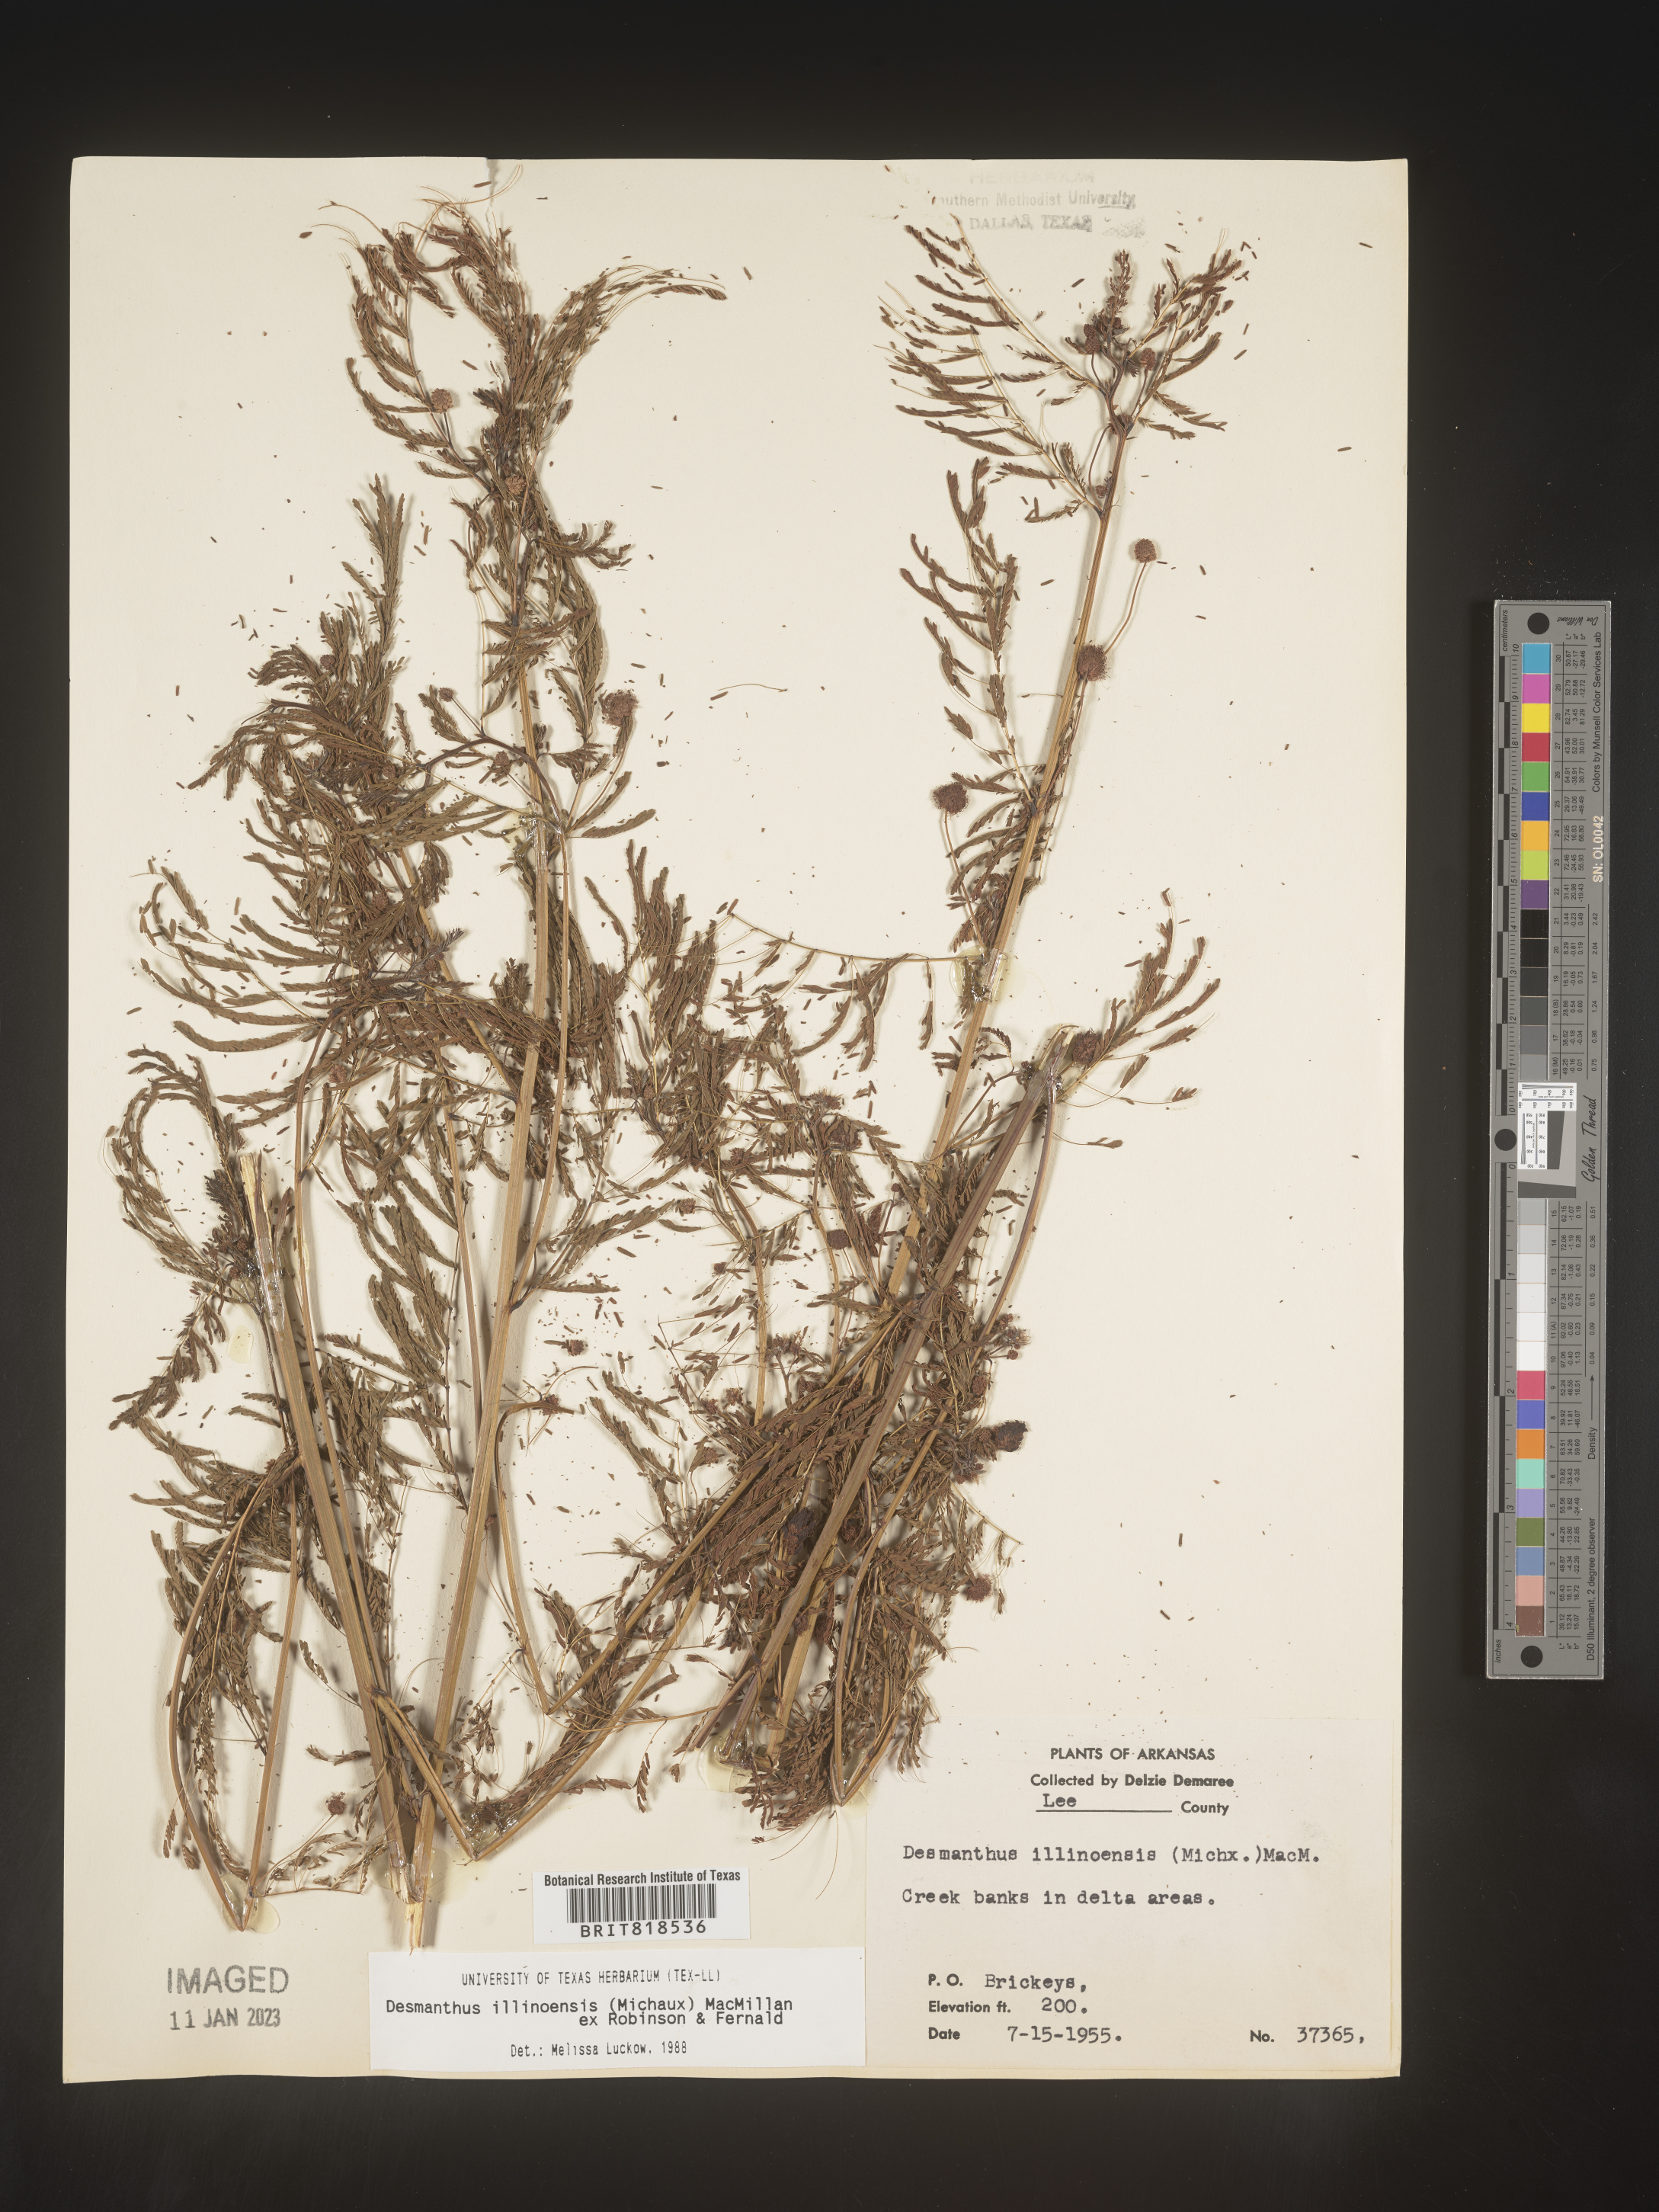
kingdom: Plantae
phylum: Tracheophyta
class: Magnoliopsida
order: Fabales
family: Fabaceae
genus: Desmanthus
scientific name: Desmanthus illinoensis
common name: Illinois bundle-flower
